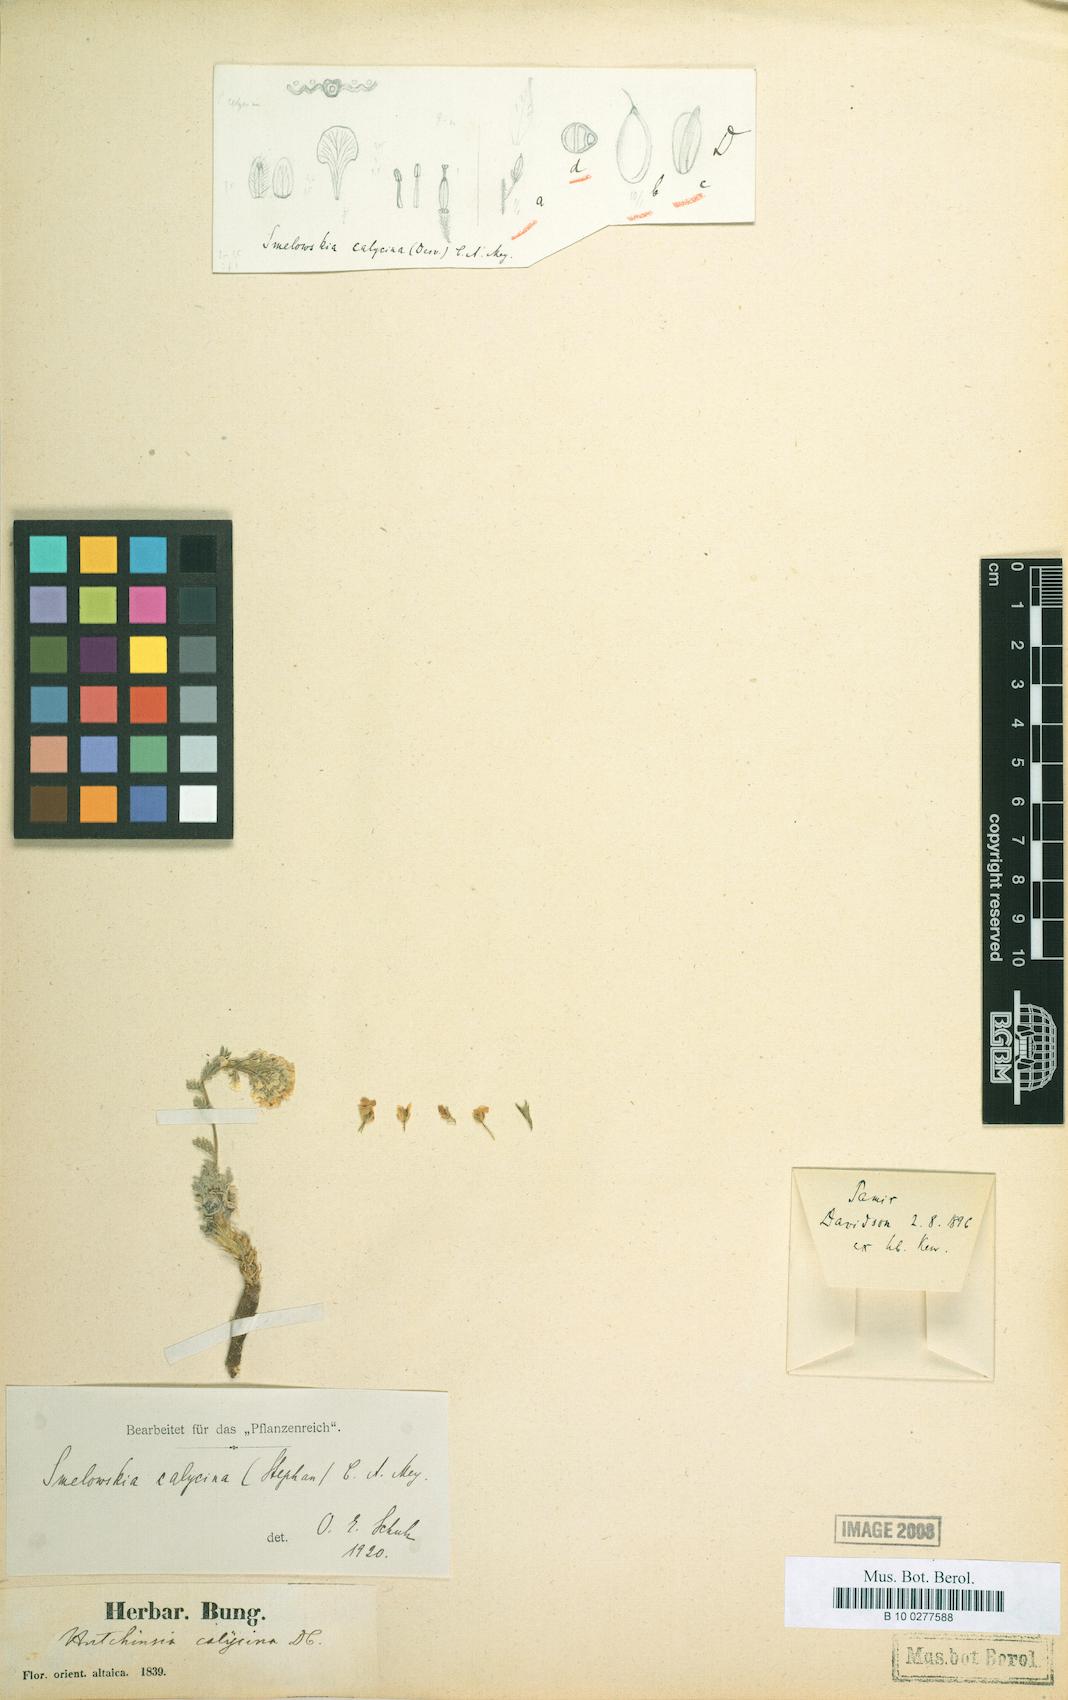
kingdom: Plantae
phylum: Tracheophyta
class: Magnoliopsida
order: Brassicales
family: Brassicaceae
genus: Smelowskia
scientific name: Smelowskia calycina
